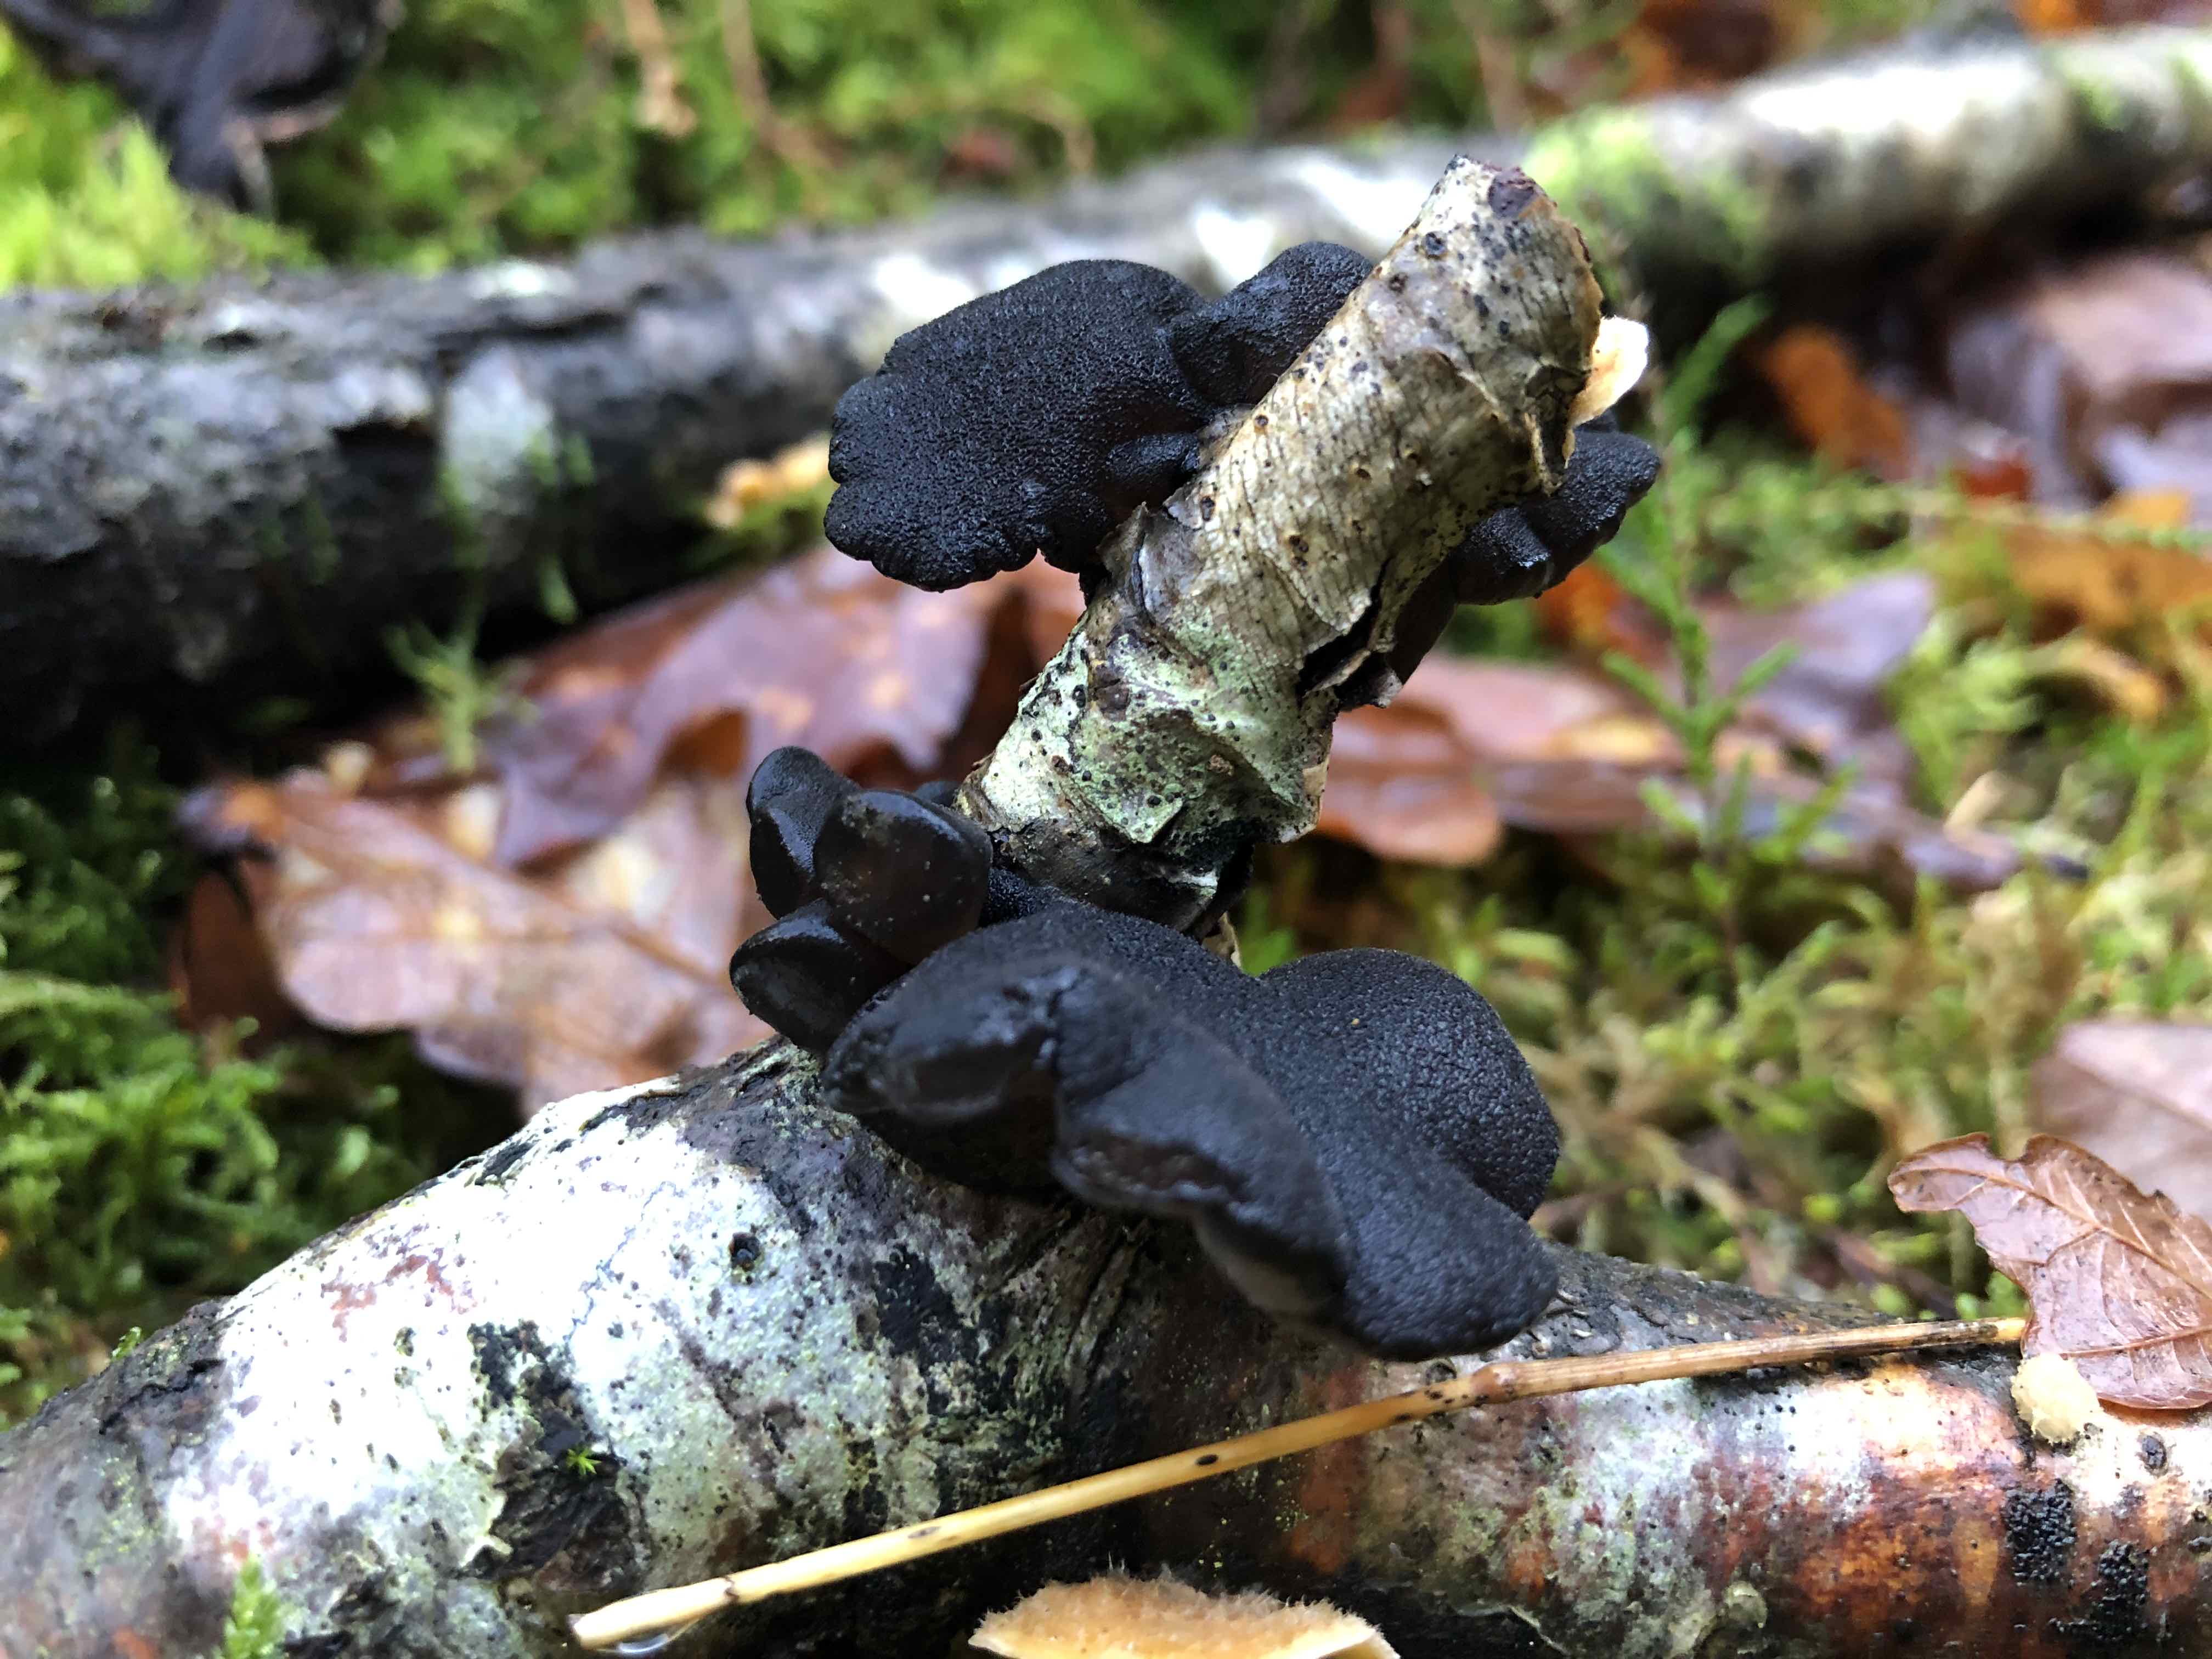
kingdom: Fungi
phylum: Basidiomycota
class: Agaricomycetes
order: Auriculariales
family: Auriculariaceae
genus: Exidia
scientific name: Exidia glandulosa
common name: ege-bævretop
